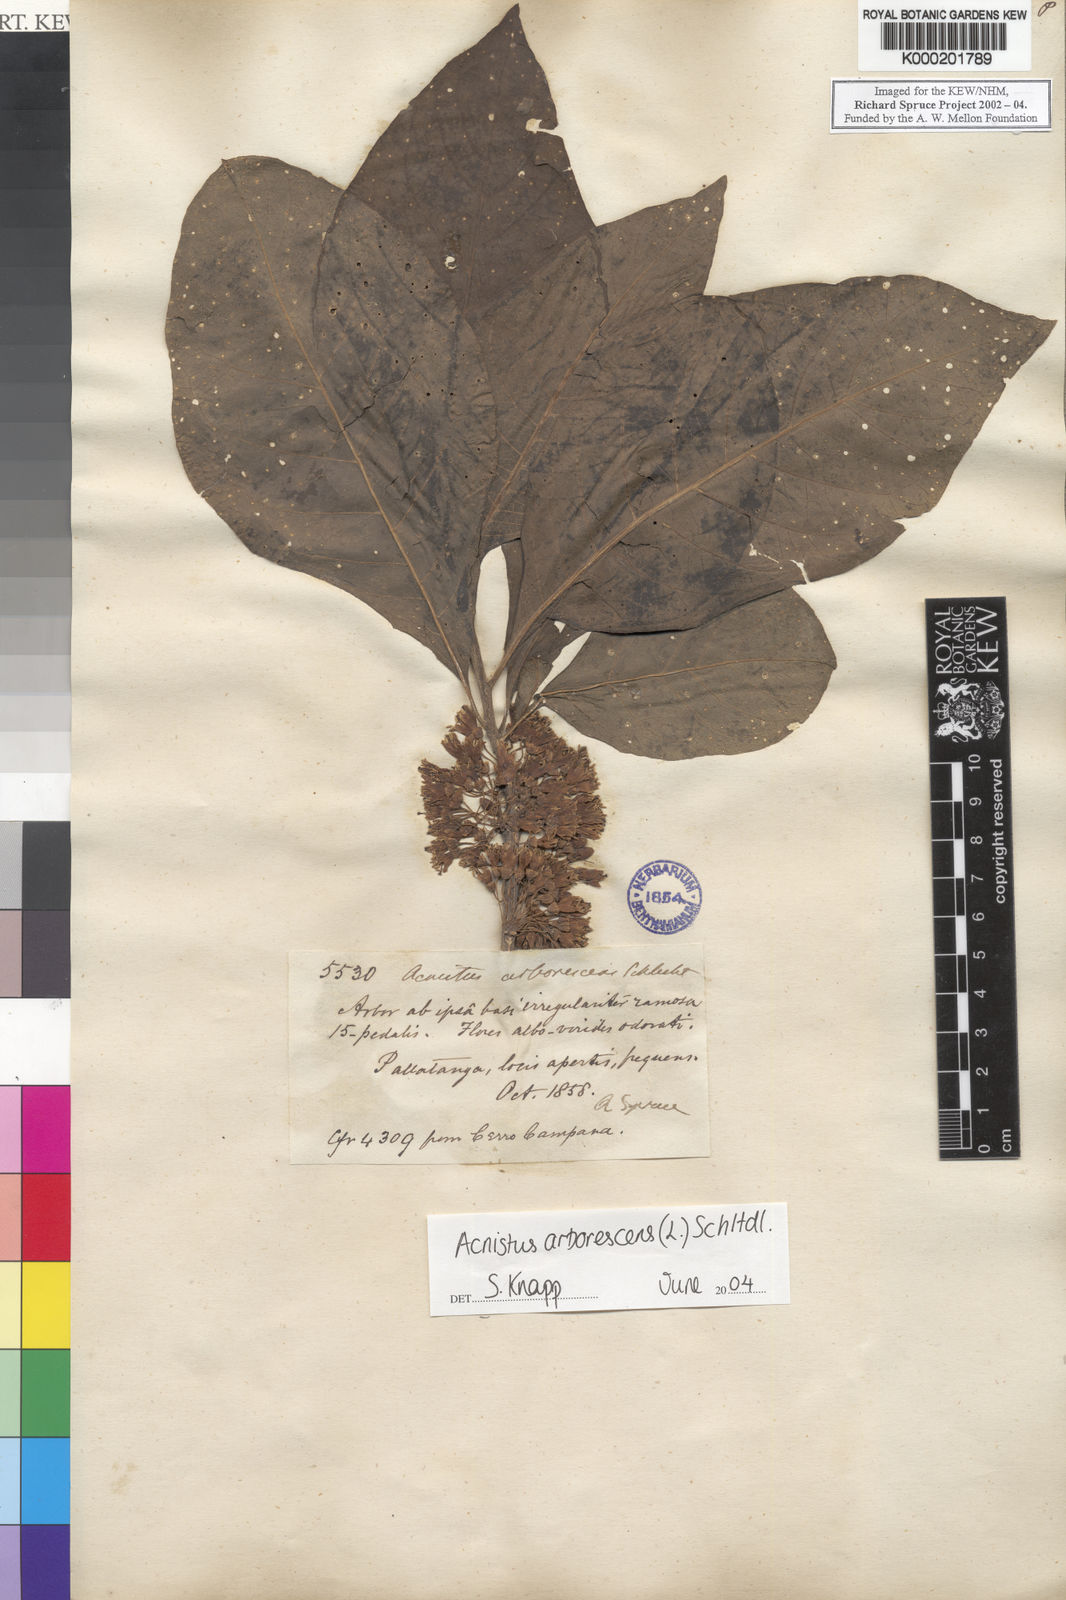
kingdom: Plantae
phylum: Tracheophyta
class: Magnoliopsida
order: Solanales
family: Solanaceae
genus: Iochroma
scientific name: Iochroma arborescens
